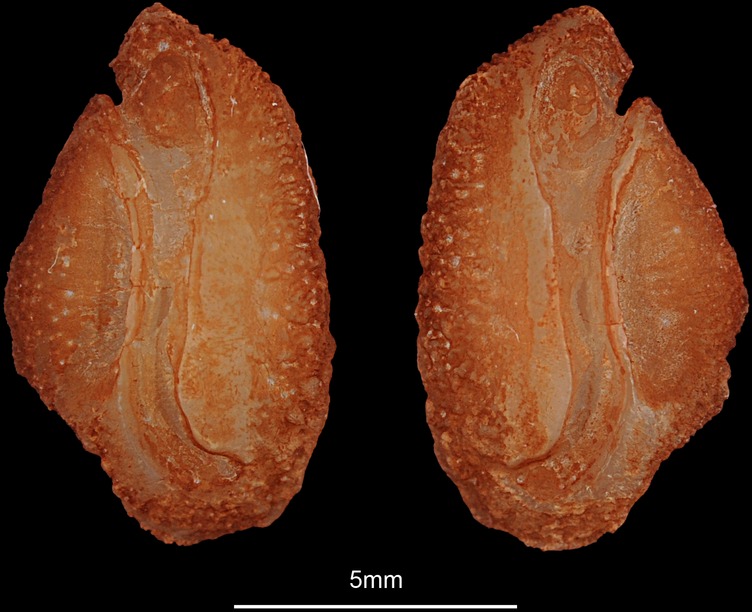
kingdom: Animalia
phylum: Chordata
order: Perciformes
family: Channidae
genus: Parachanna
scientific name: Parachanna obscura
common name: Snake-head
